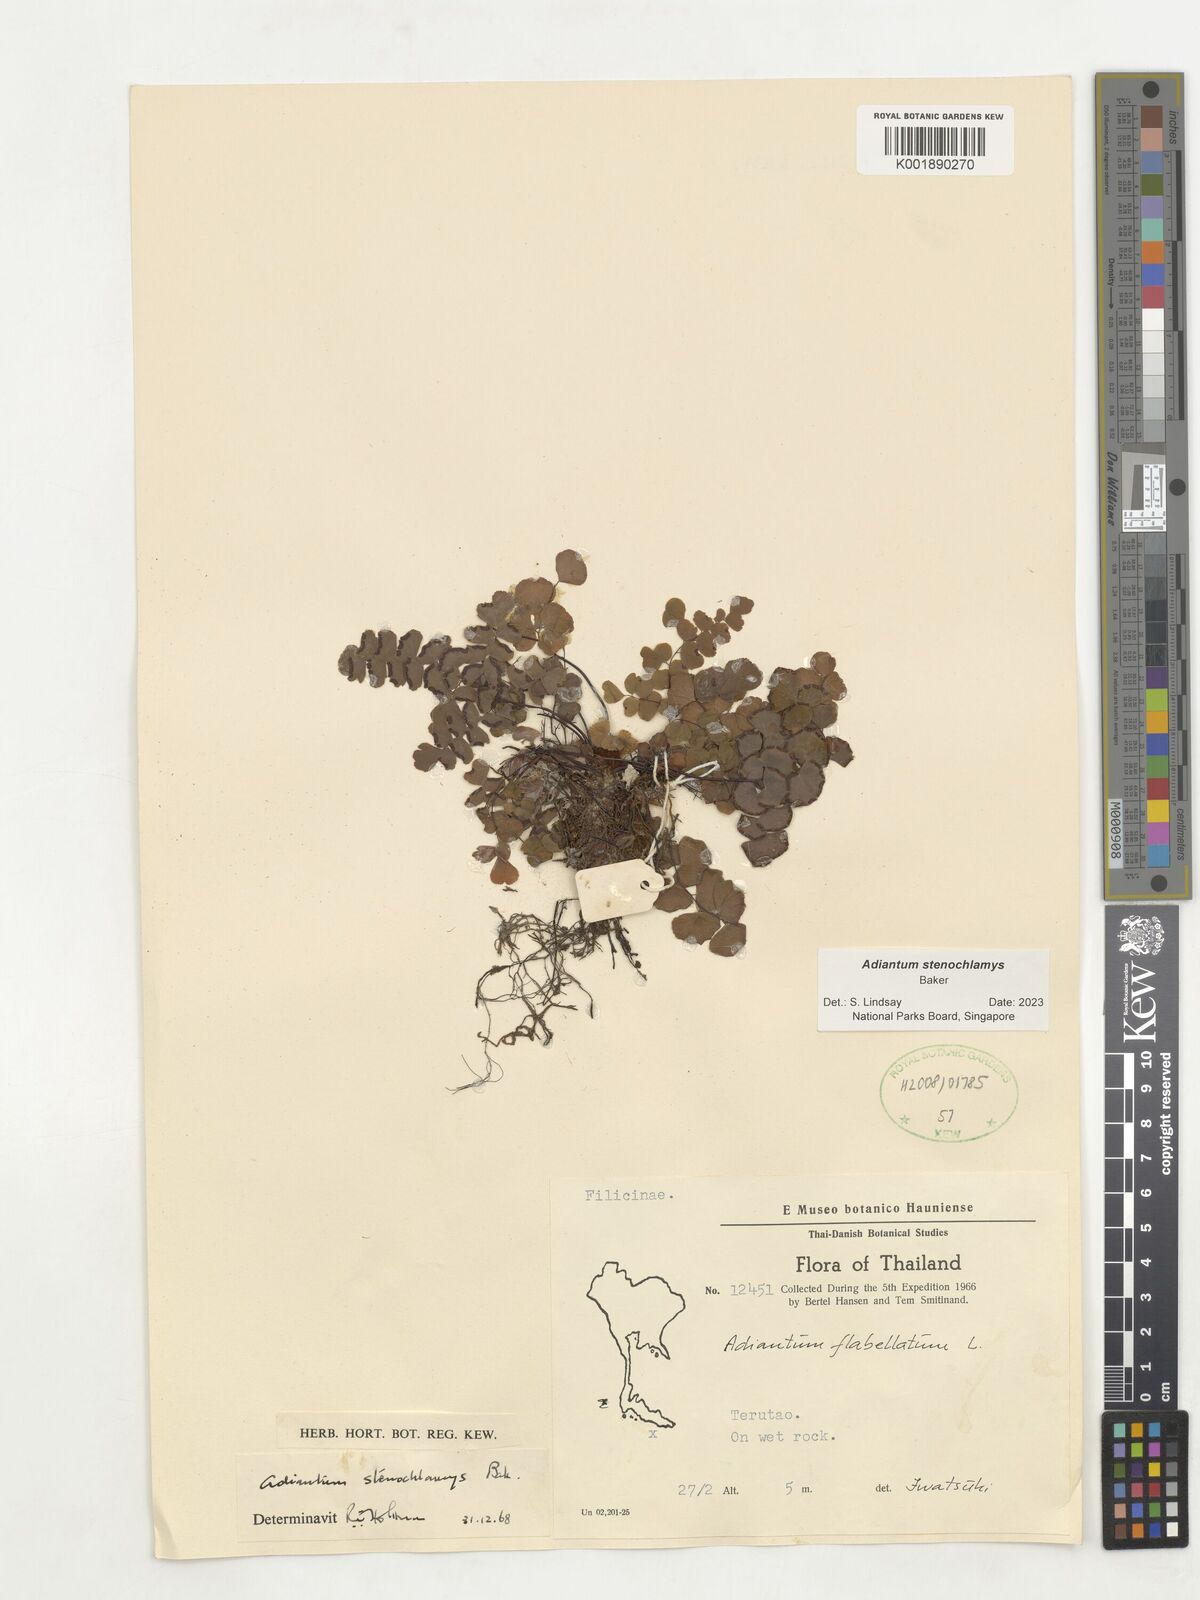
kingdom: Plantae
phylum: Tracheophyta
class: Polypodiopsida
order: Polypodiales
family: Pteridaceae
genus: Adiantum
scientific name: Adiantum stenochlamys
